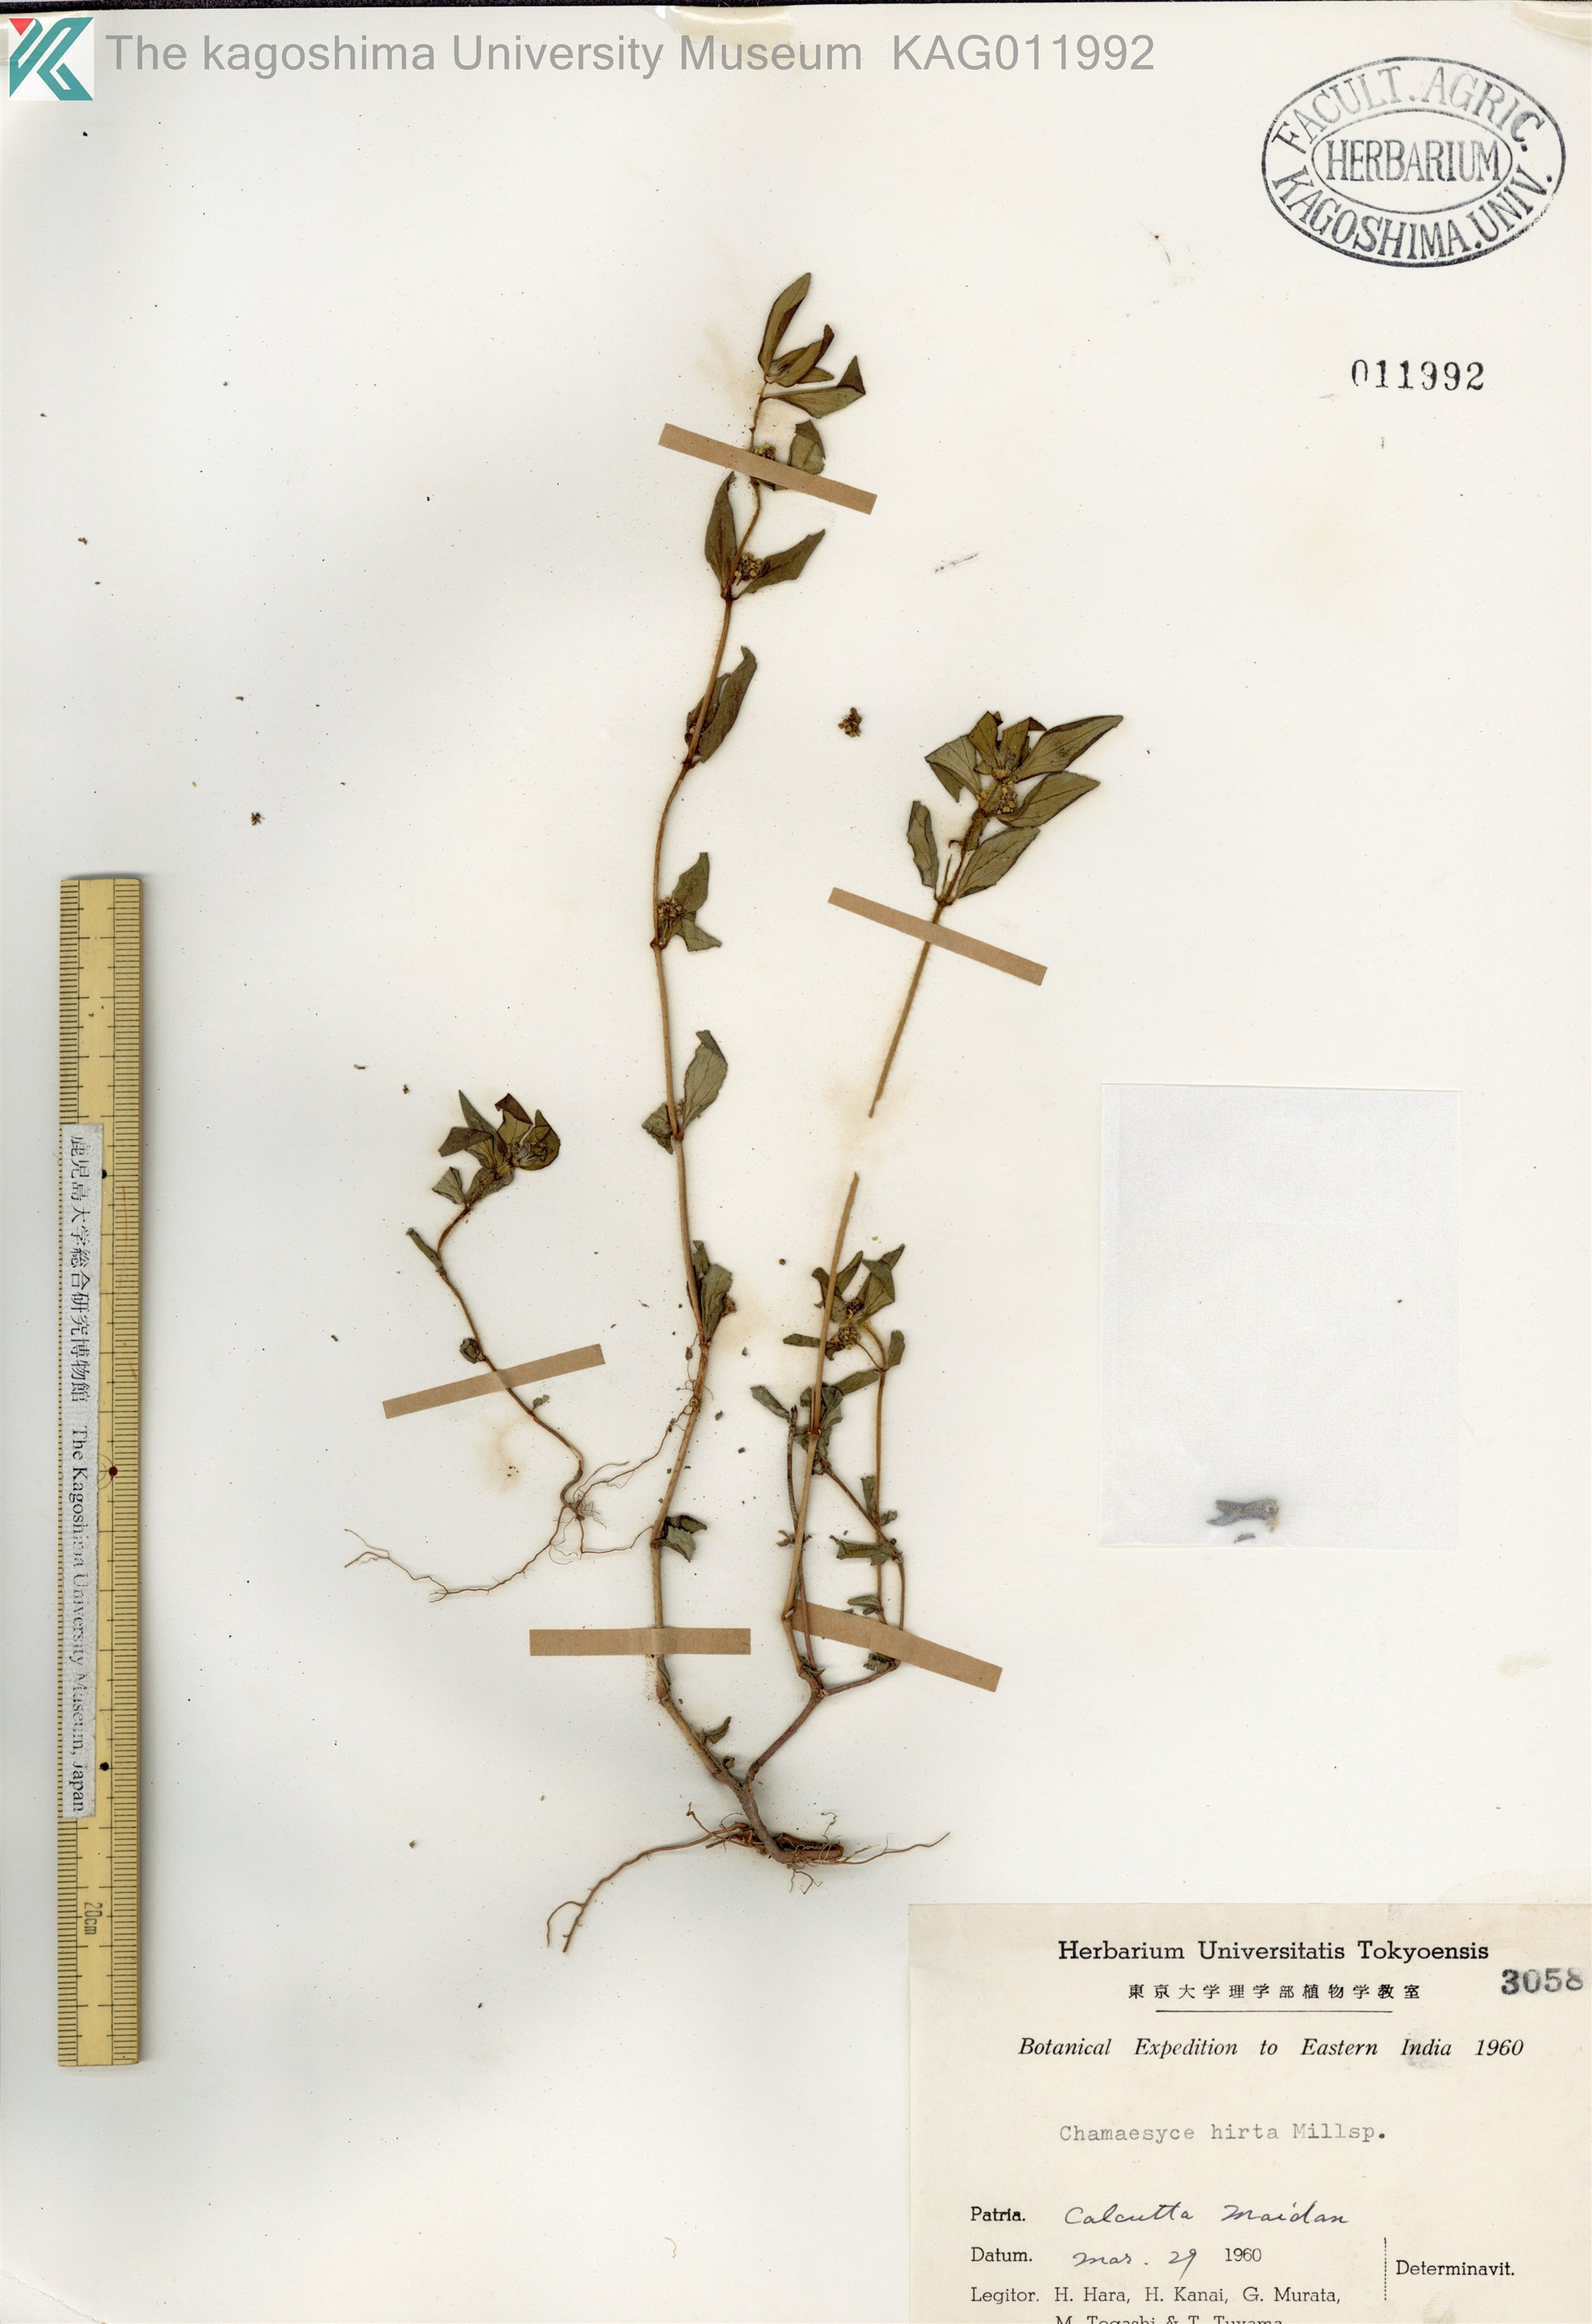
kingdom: Plantae
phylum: Tracheophyta
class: Magnoliopsida
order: Malpighiales
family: Euphorbiaceae
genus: Euphorbia
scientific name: Euphorbia hirta
